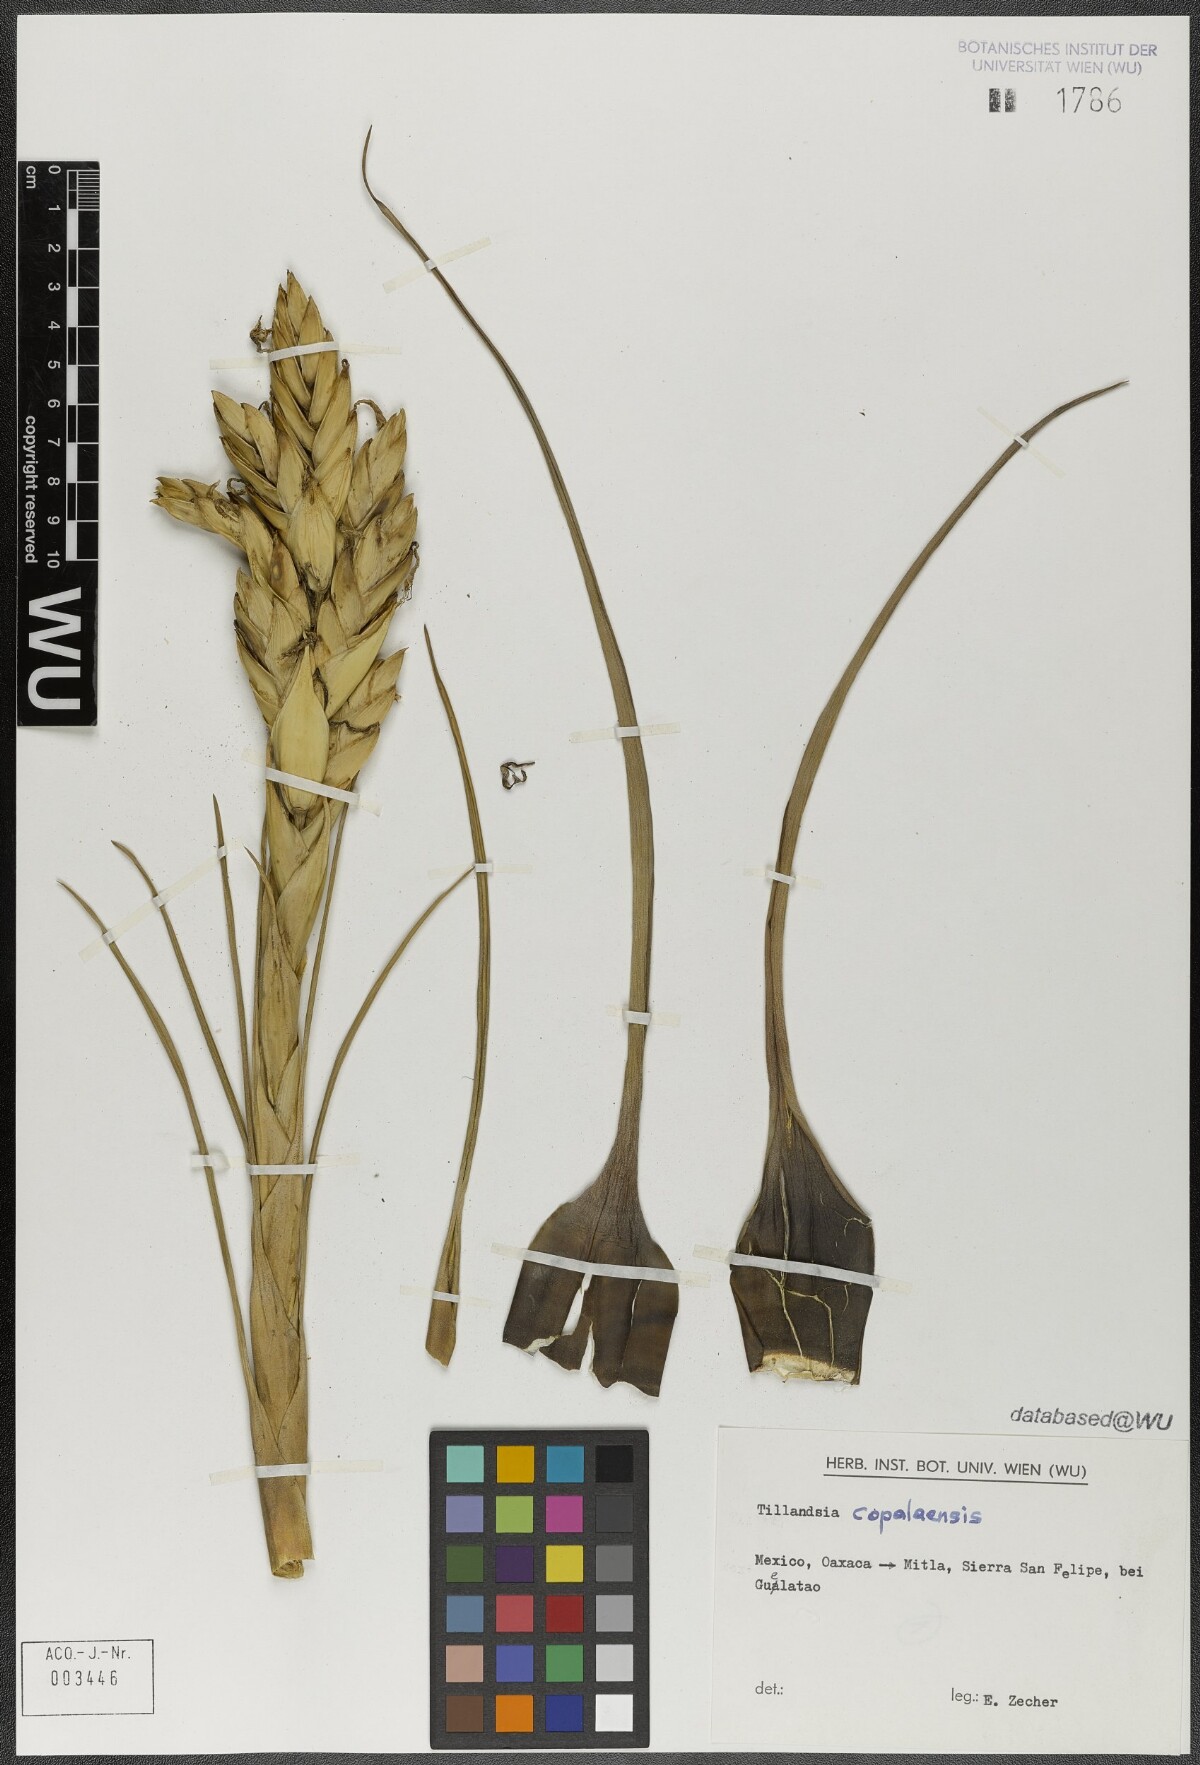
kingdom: Plantae
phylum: Tracheophyta
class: Liliopsida
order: Poales
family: Bromeliaceae
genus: Tillandsia
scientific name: Tillandsia copalaensis
